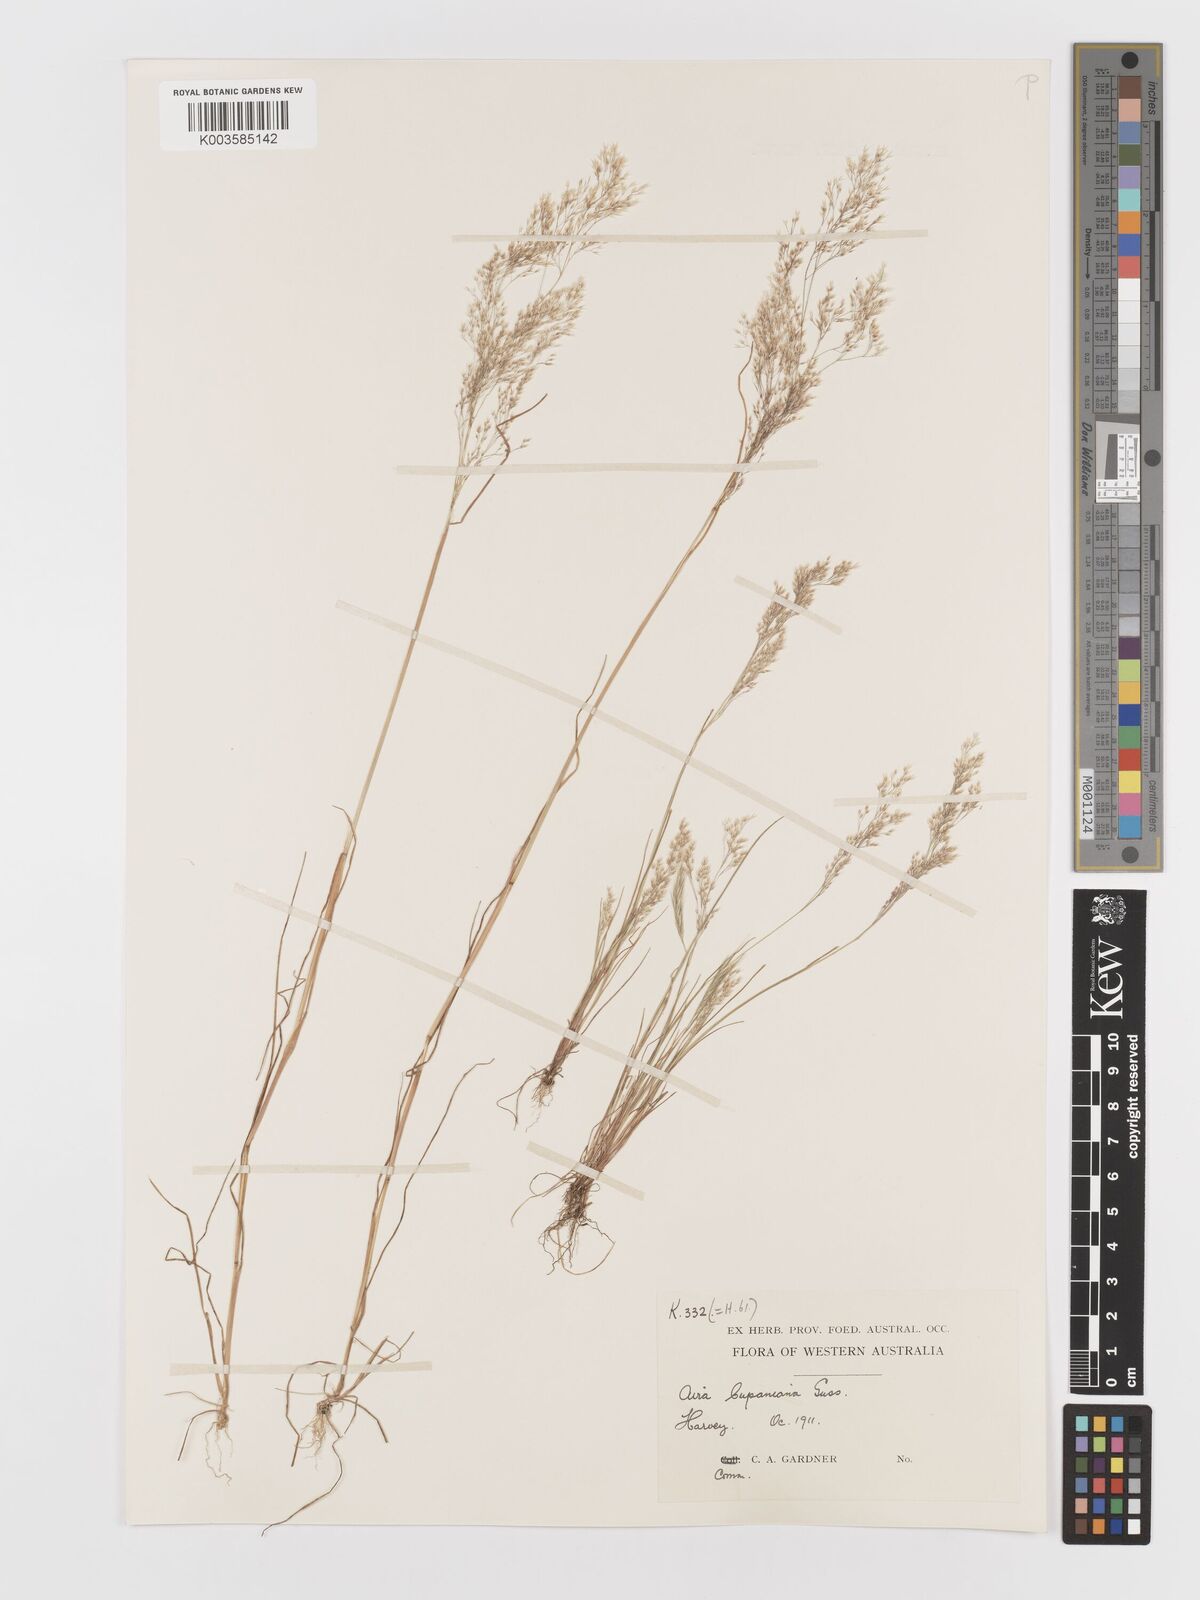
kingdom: Plantae
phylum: Tracheophyta
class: Liliopsida
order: Poales
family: Poaceae
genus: Aira
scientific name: Aira cupaniana
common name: Silver hairgrass
